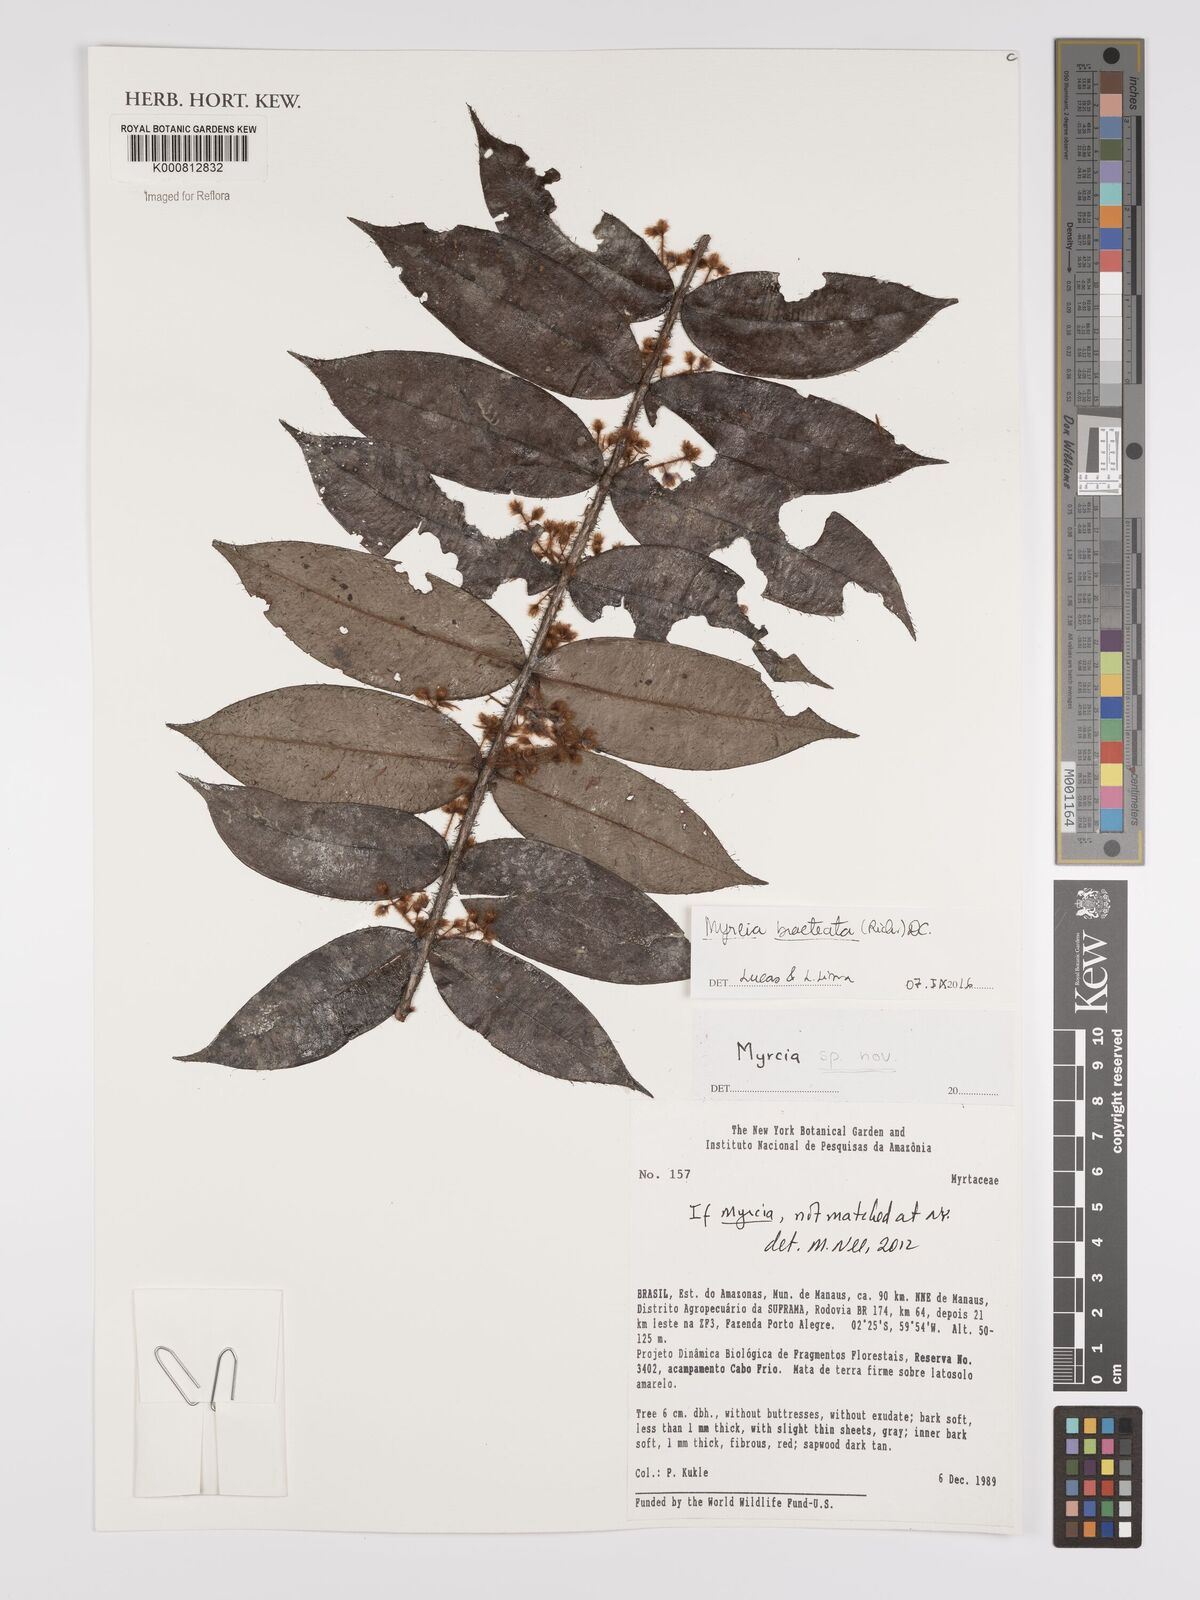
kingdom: Plantae
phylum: Tracheophyta
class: Magnoliopsida
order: Myrtales
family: Myrtaceae
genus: Myrcia
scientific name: Myrcia bracteata
